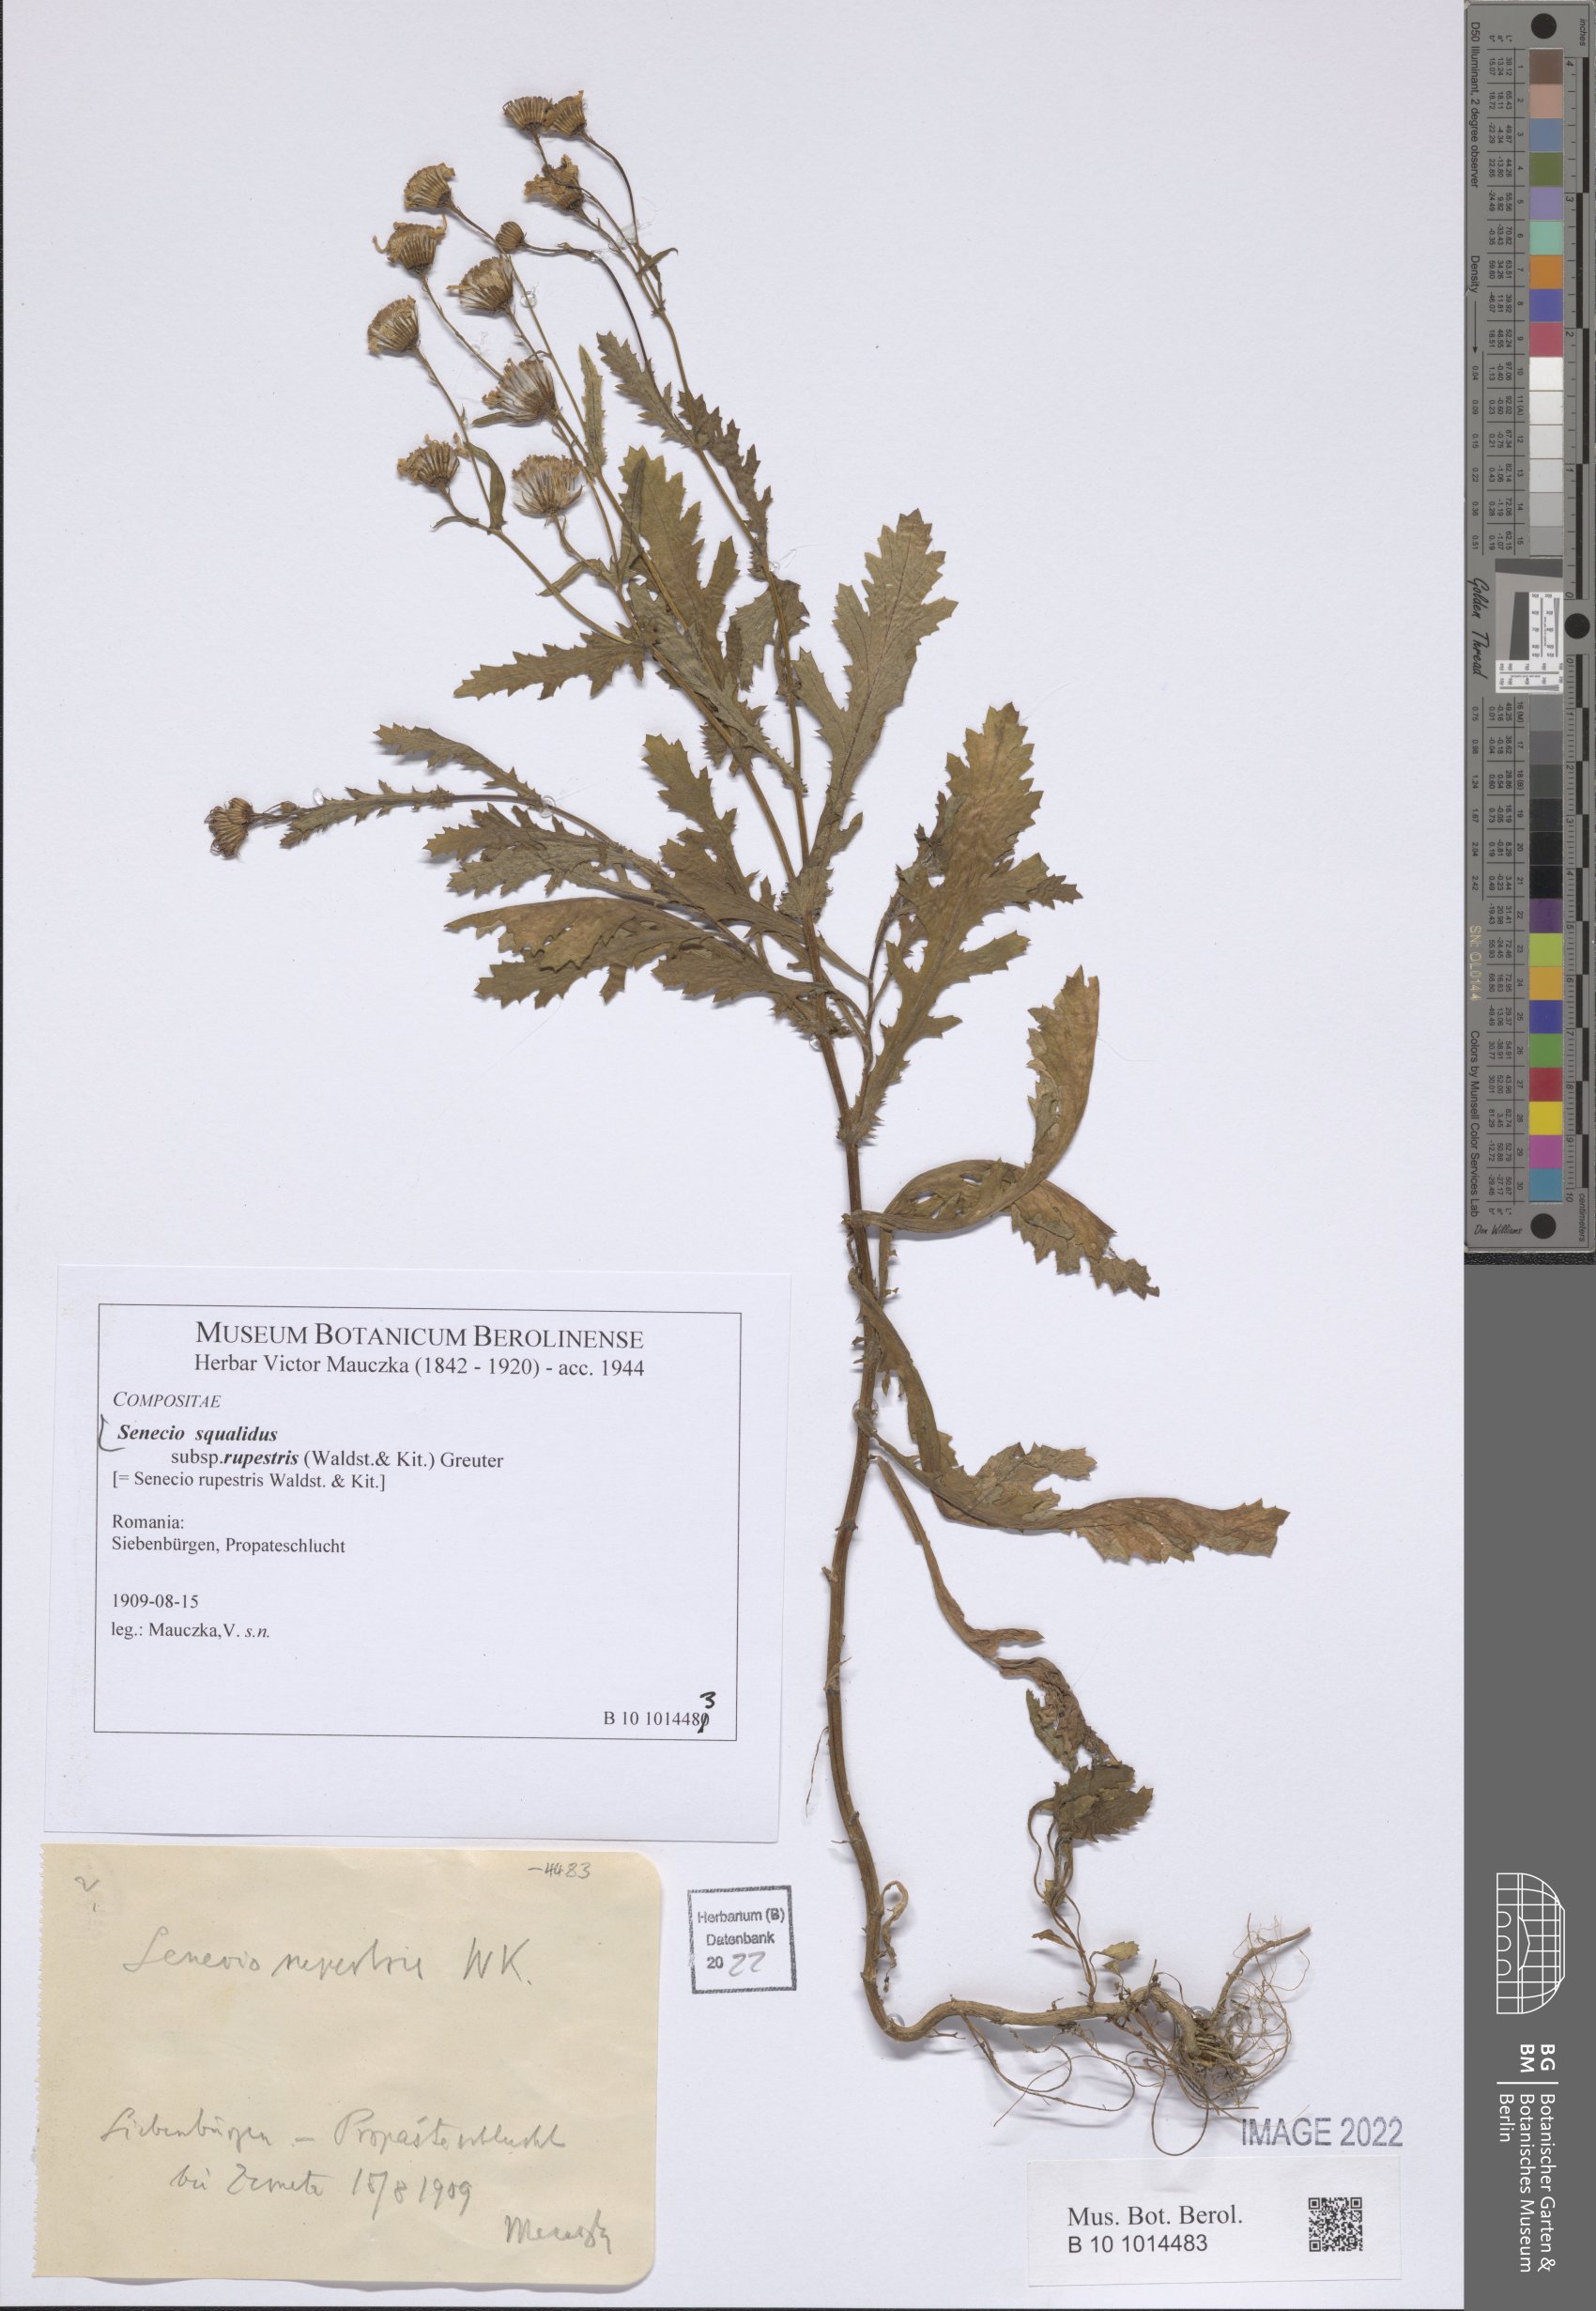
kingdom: Plantae
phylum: Tracheophyta
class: Magnoliopsida
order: Asterales
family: Asteraceae
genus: Senecio
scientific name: Senecio rupestris
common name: Rock ragwort
